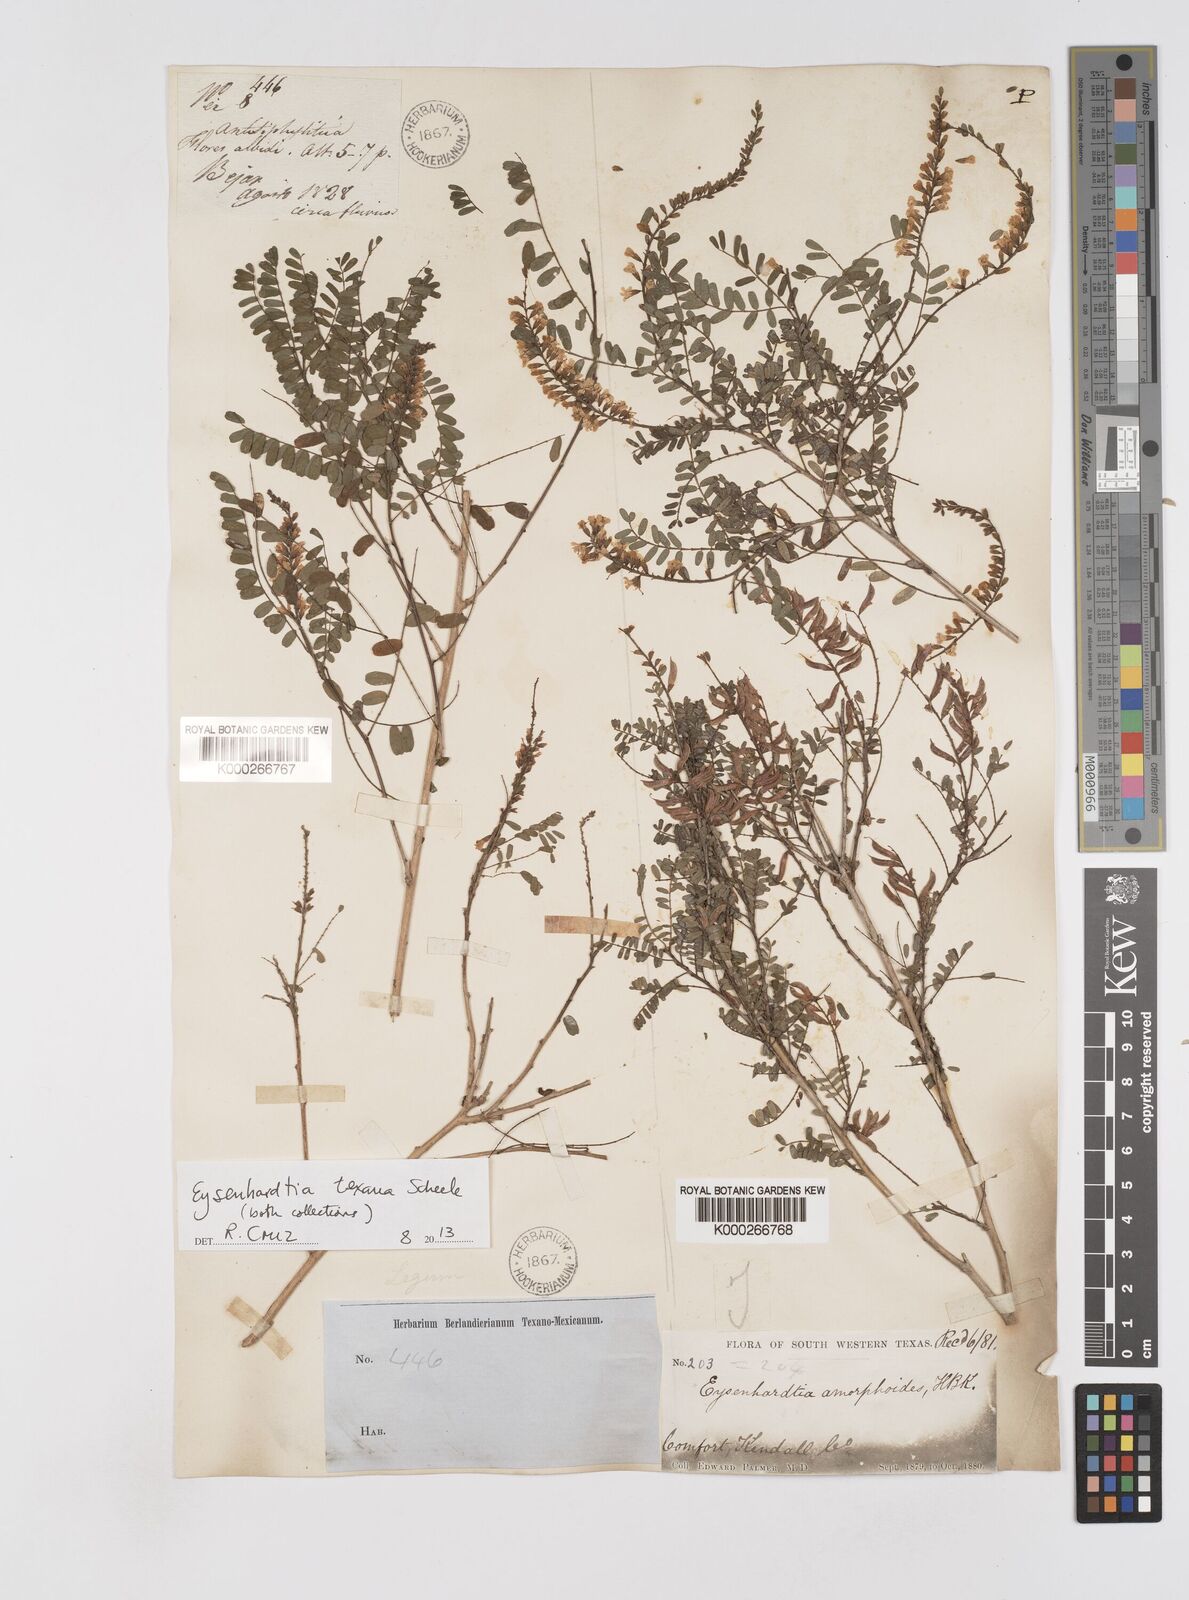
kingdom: Plantae
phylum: Tracheophyta
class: Magnoliopsida
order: Fabales
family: Fabaceae
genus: Eysenhardtia
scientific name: Eysenhardtia texana
